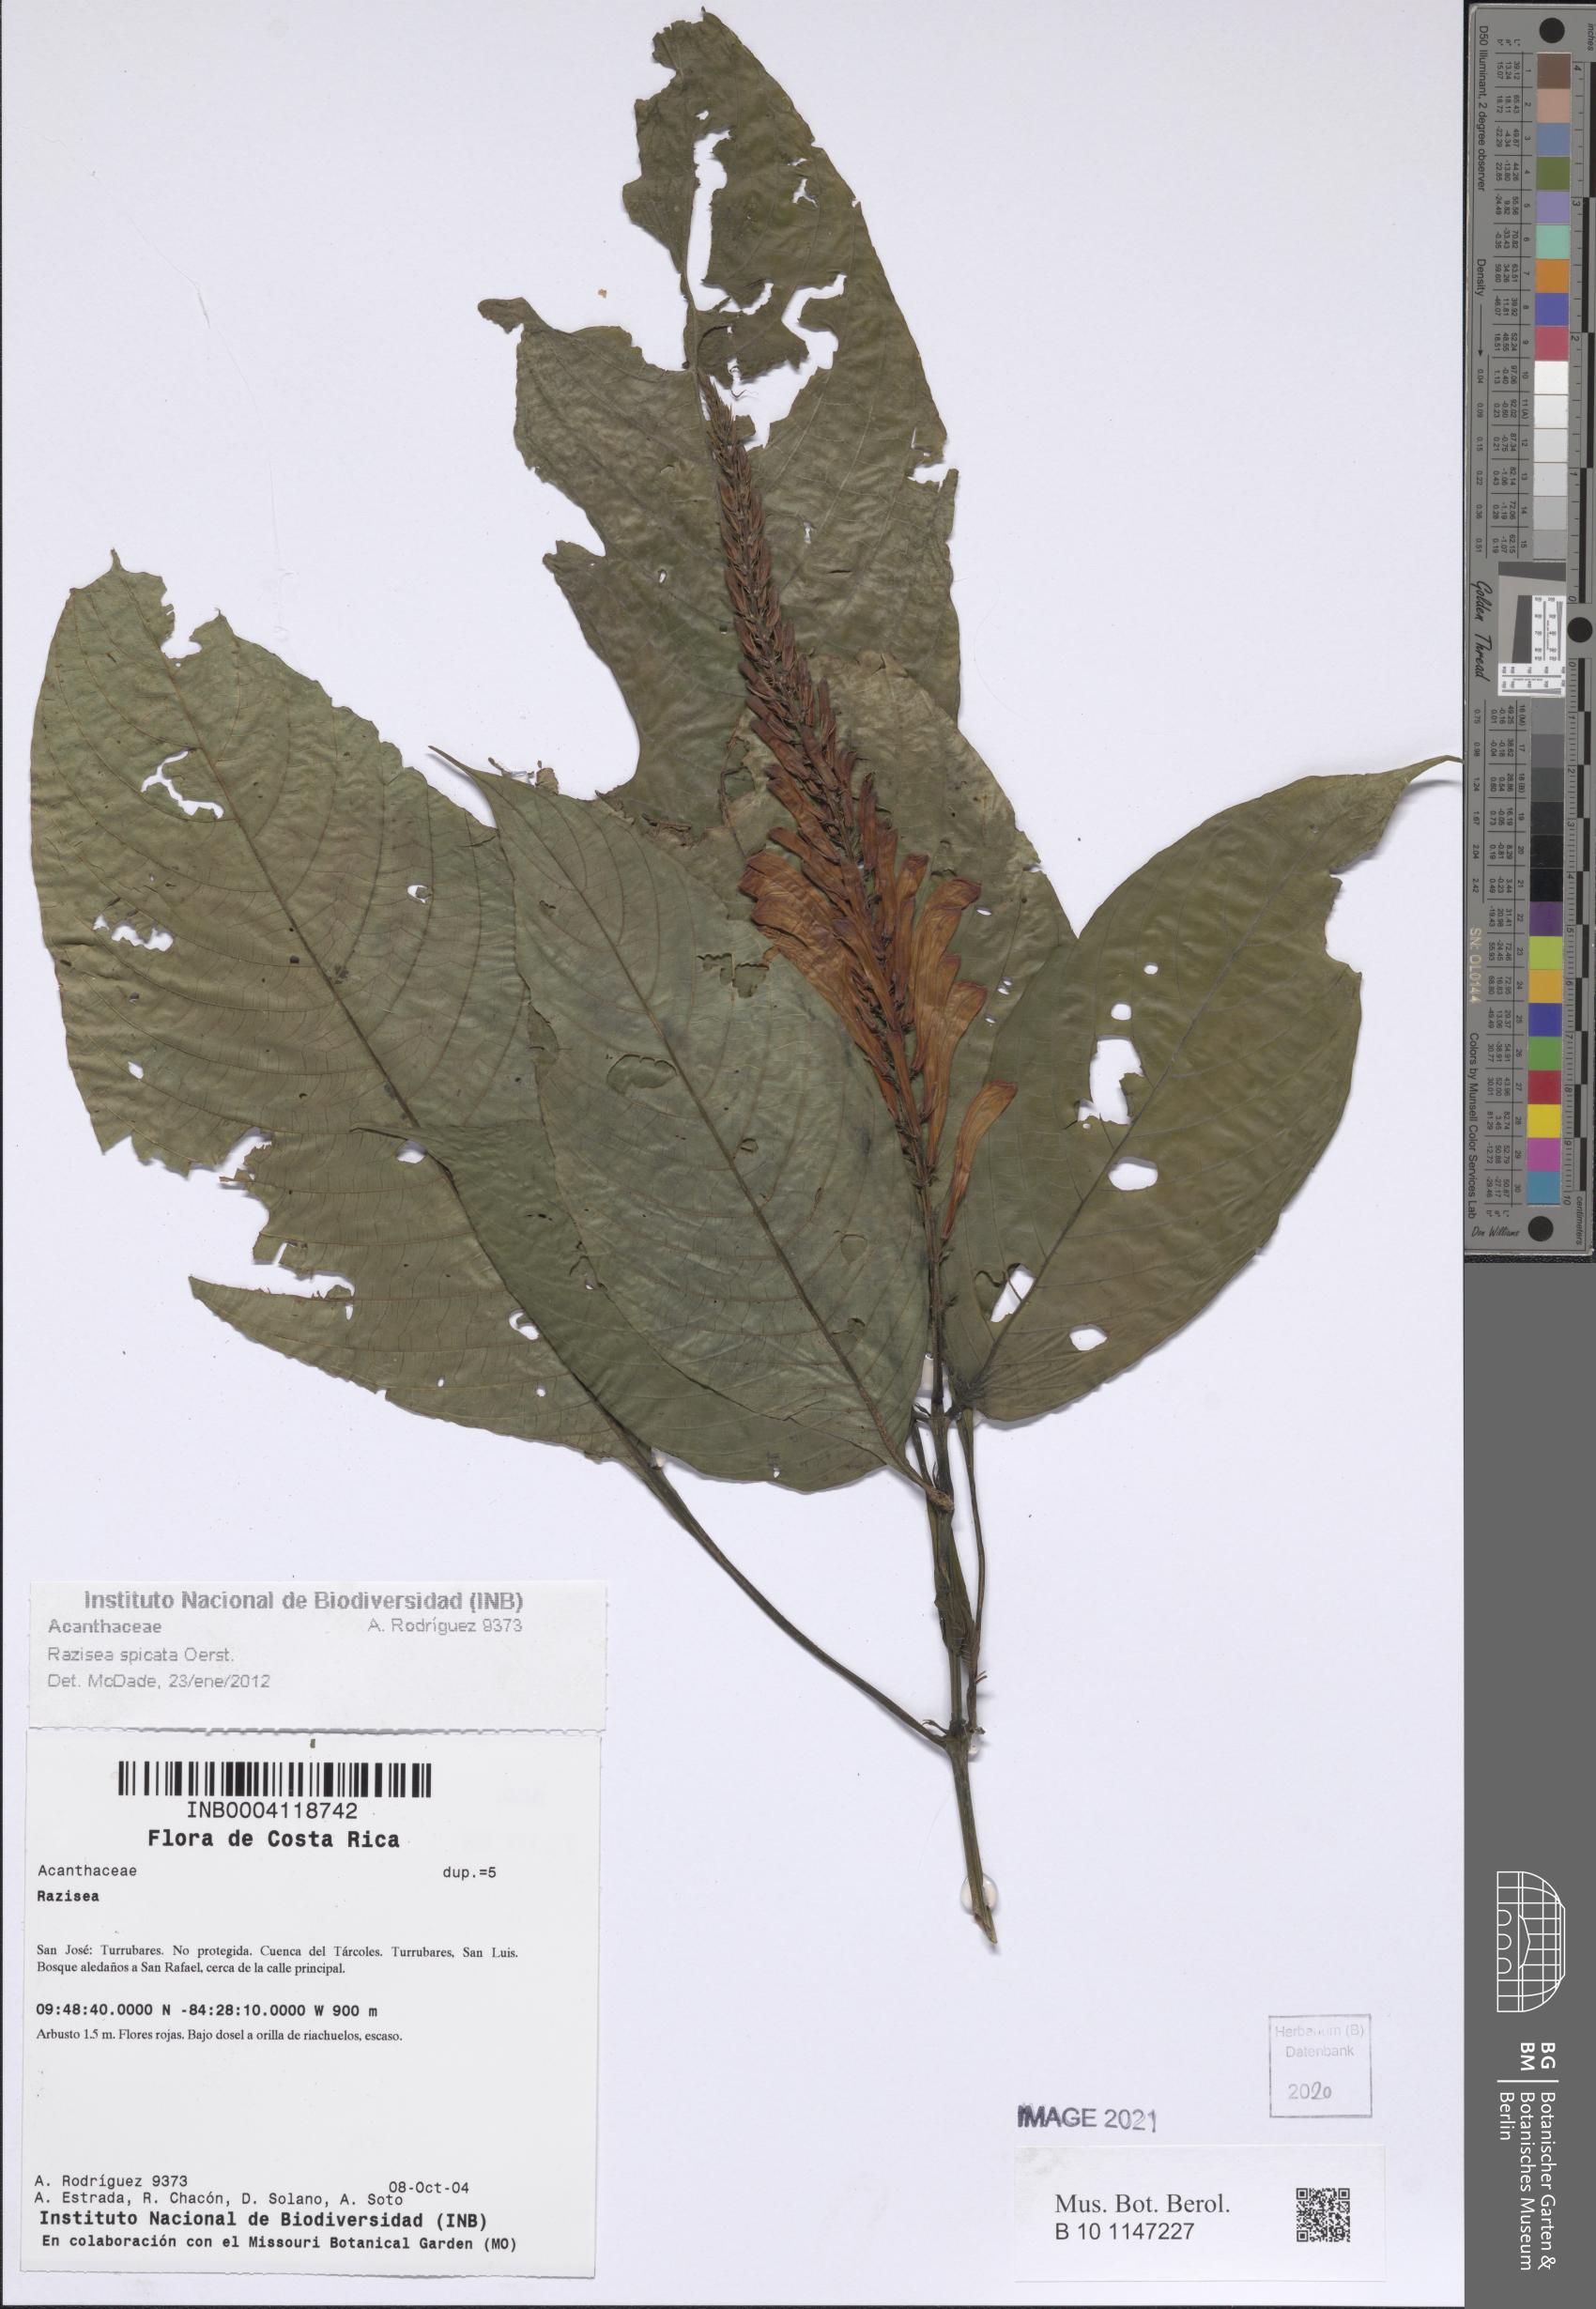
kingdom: Plantae
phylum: Tracheophyta
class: Magnoliopsida
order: Lamiales
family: Acanthaceae
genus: Stenostephanus
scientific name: Stenostephanus leiorhachis
